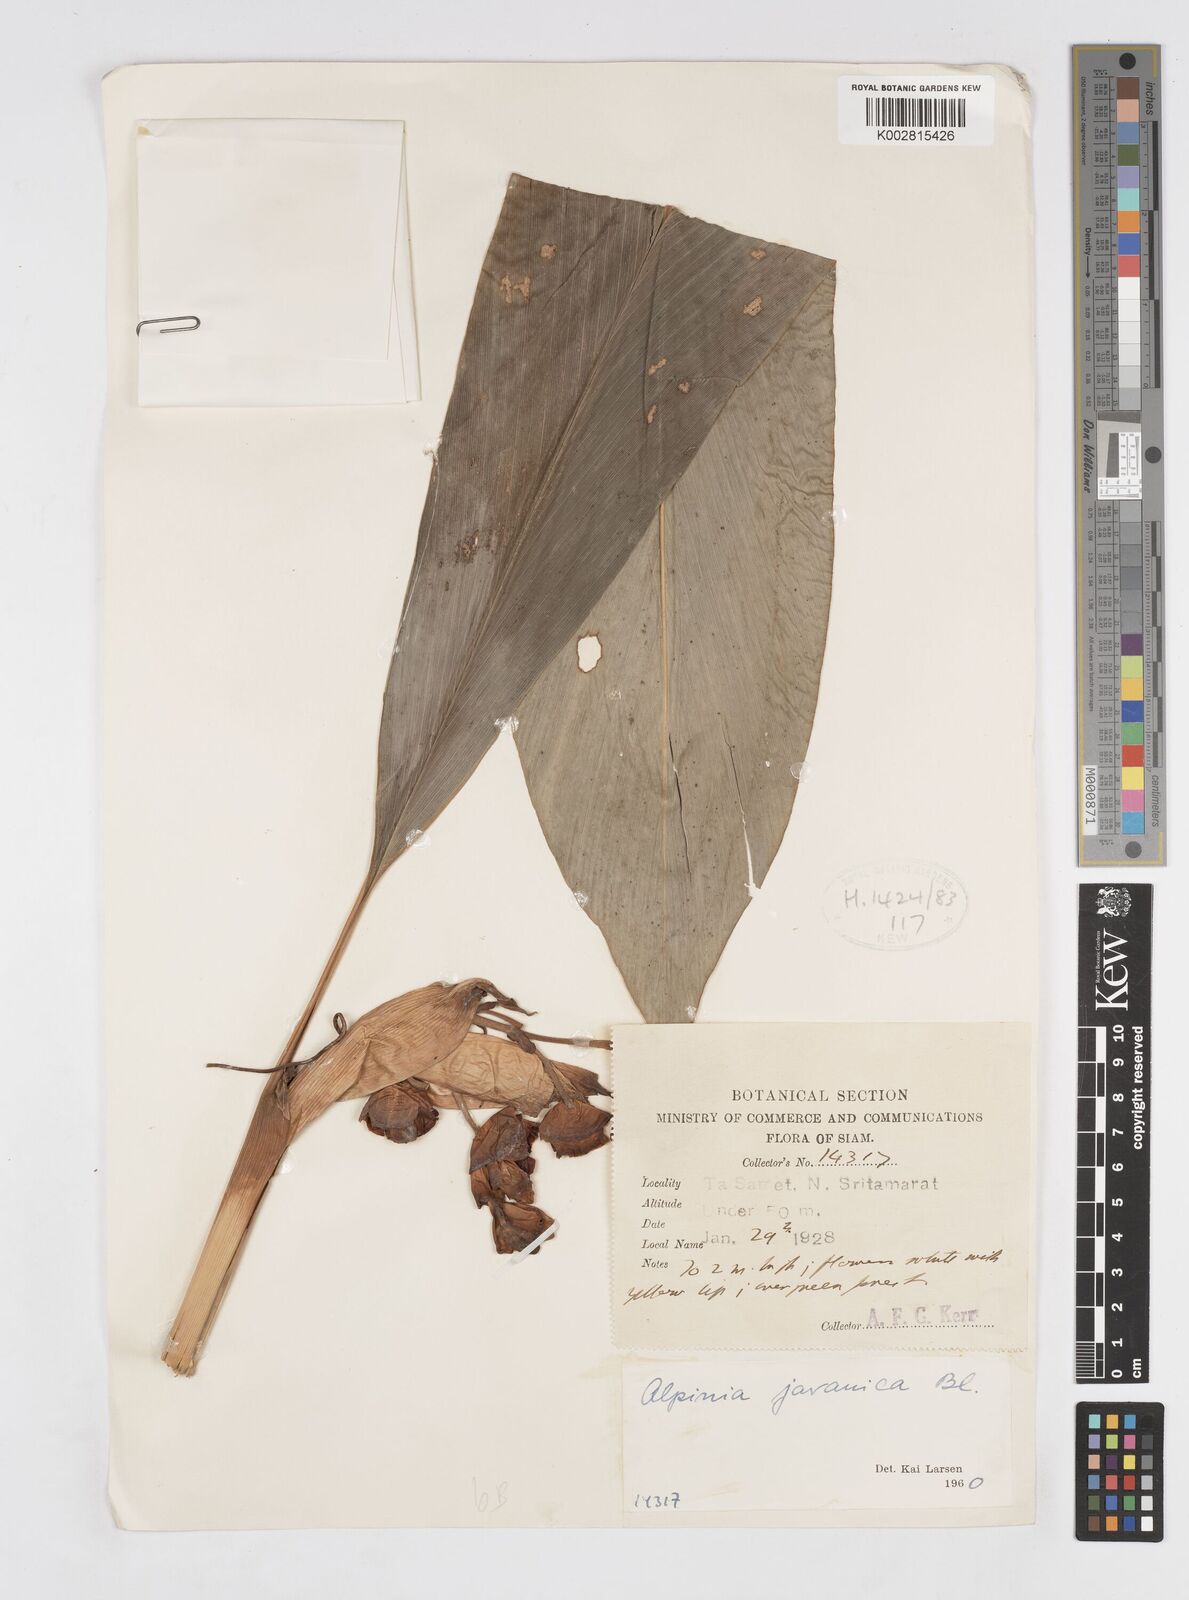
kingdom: Plantae
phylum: Tracheophyta
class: Liliopsida
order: Zingiberales
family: Zingiberaceae
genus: Alpinia
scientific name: Alpinia javanica
